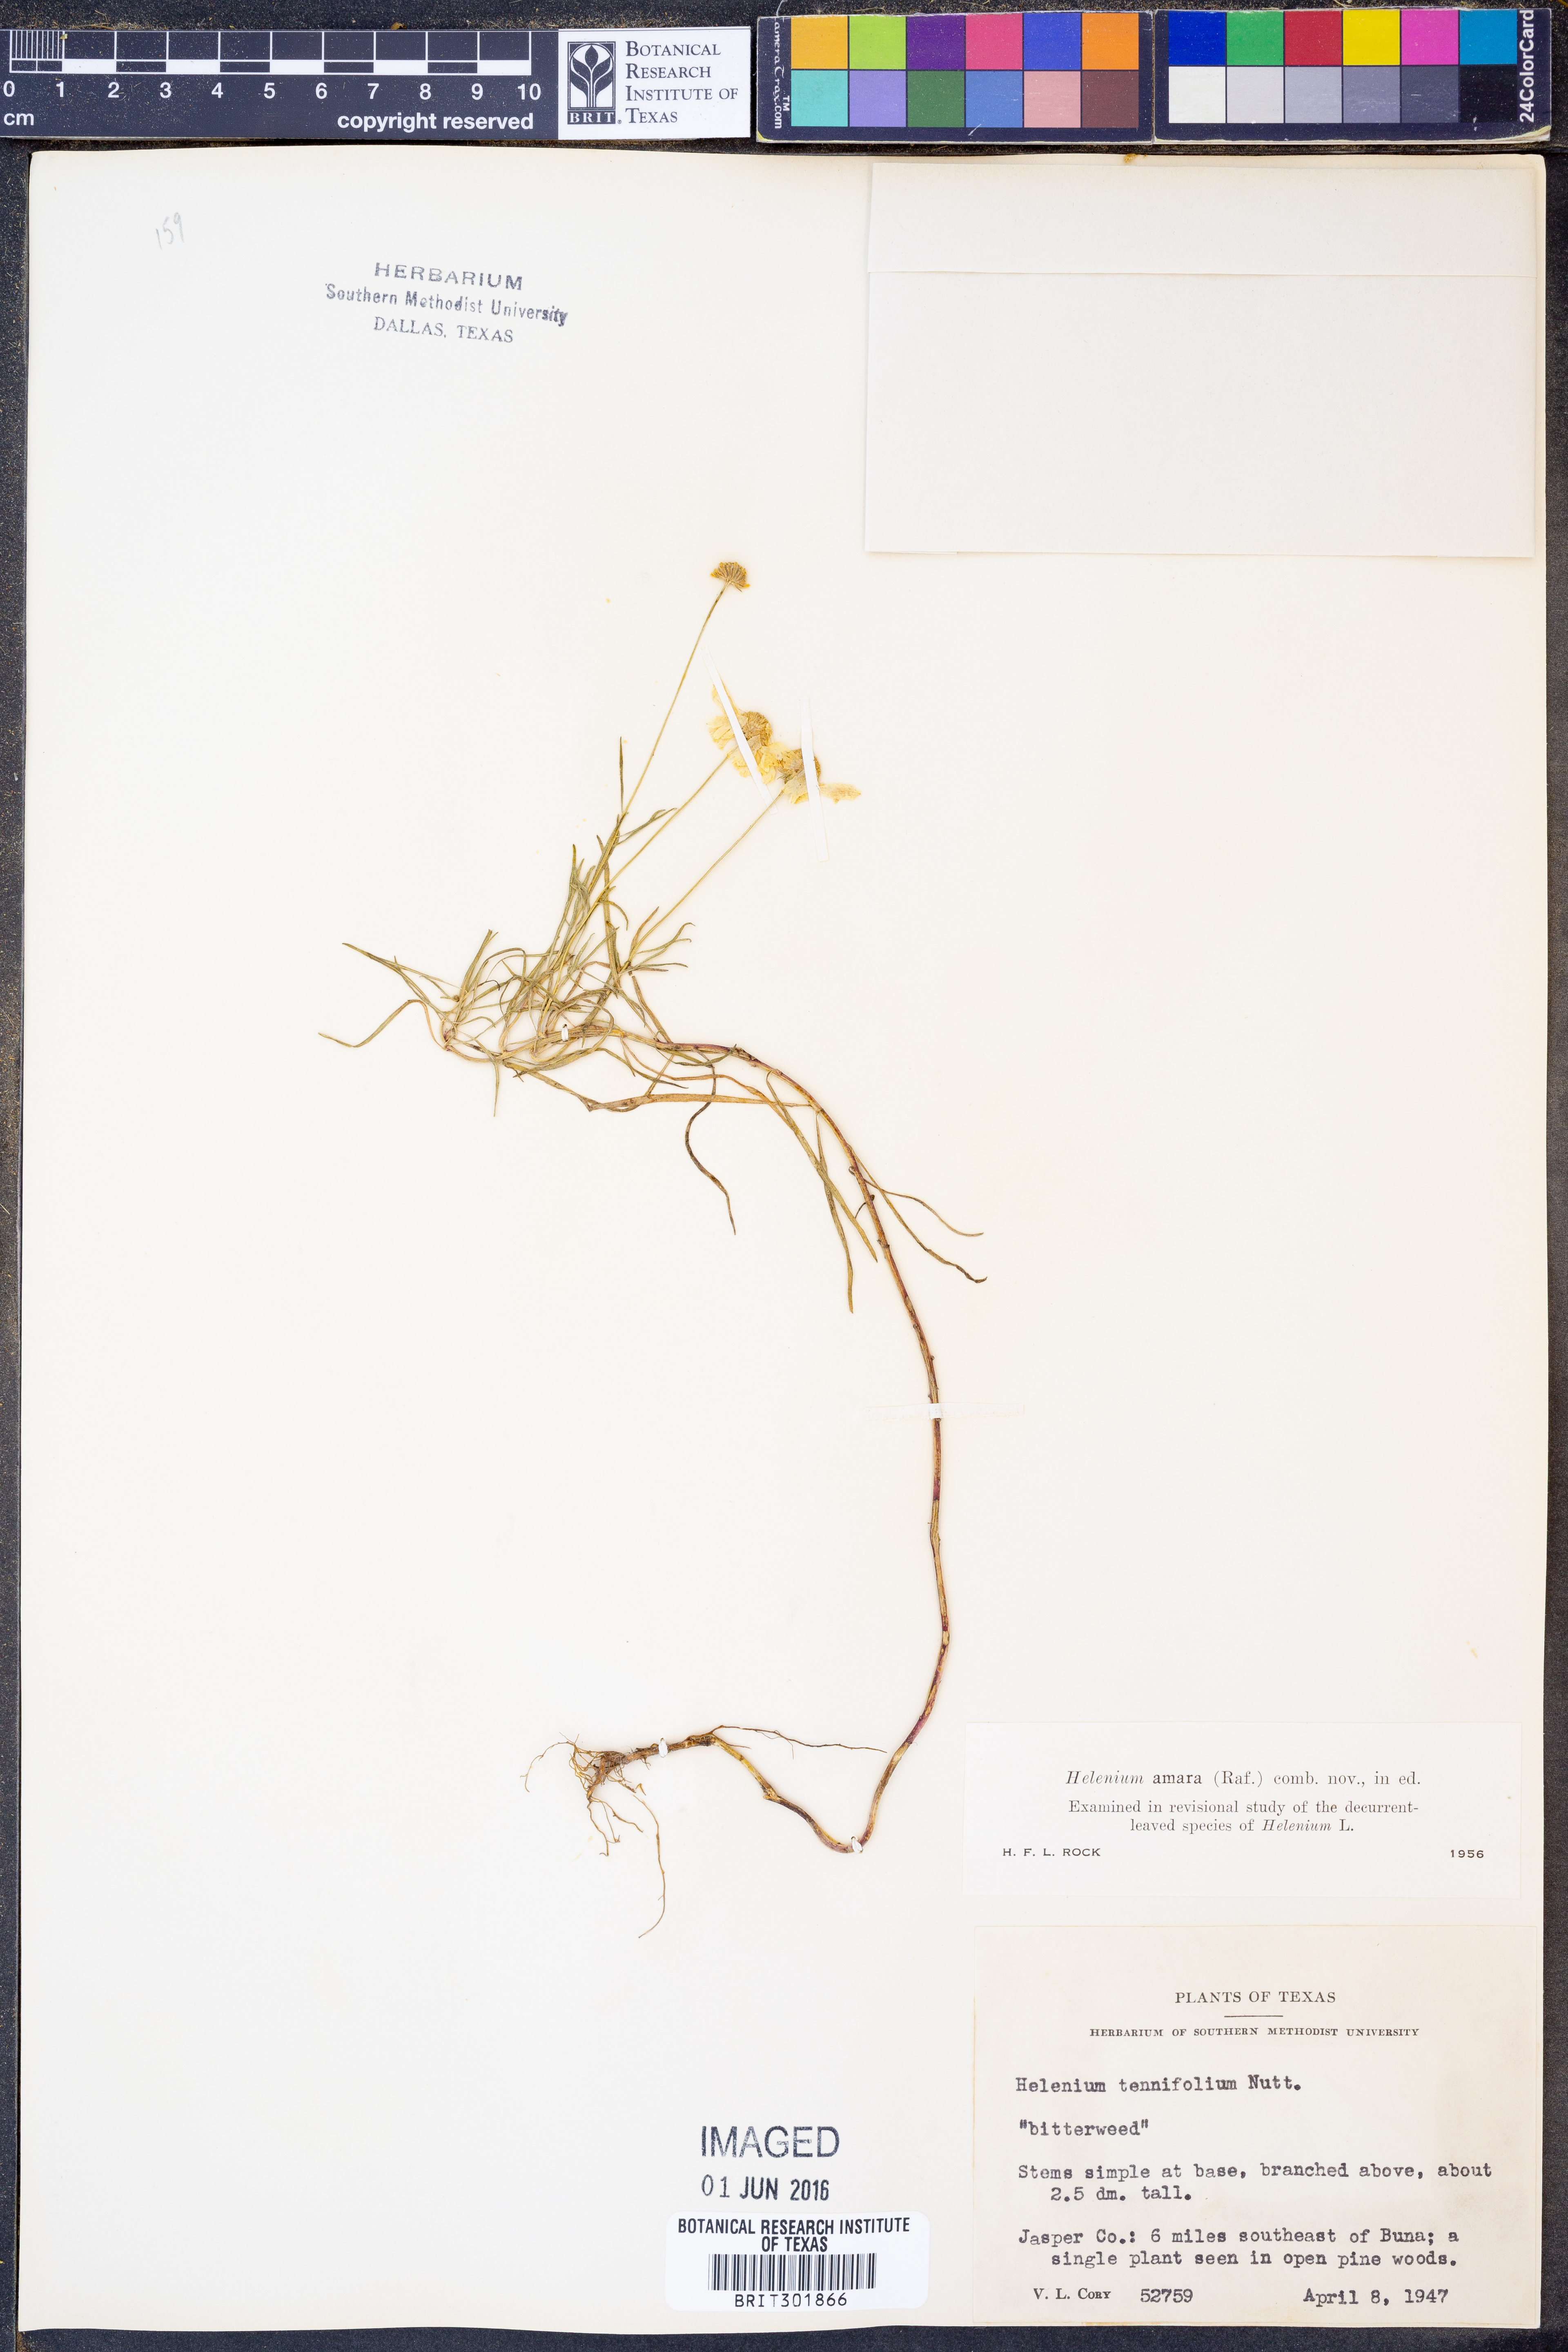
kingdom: Plantae
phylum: Tracheophyta
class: Magnoliopsida
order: Asterales
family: Asteraceae
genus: Helenium
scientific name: Helenium amarum
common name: Bitter sneezeweed
